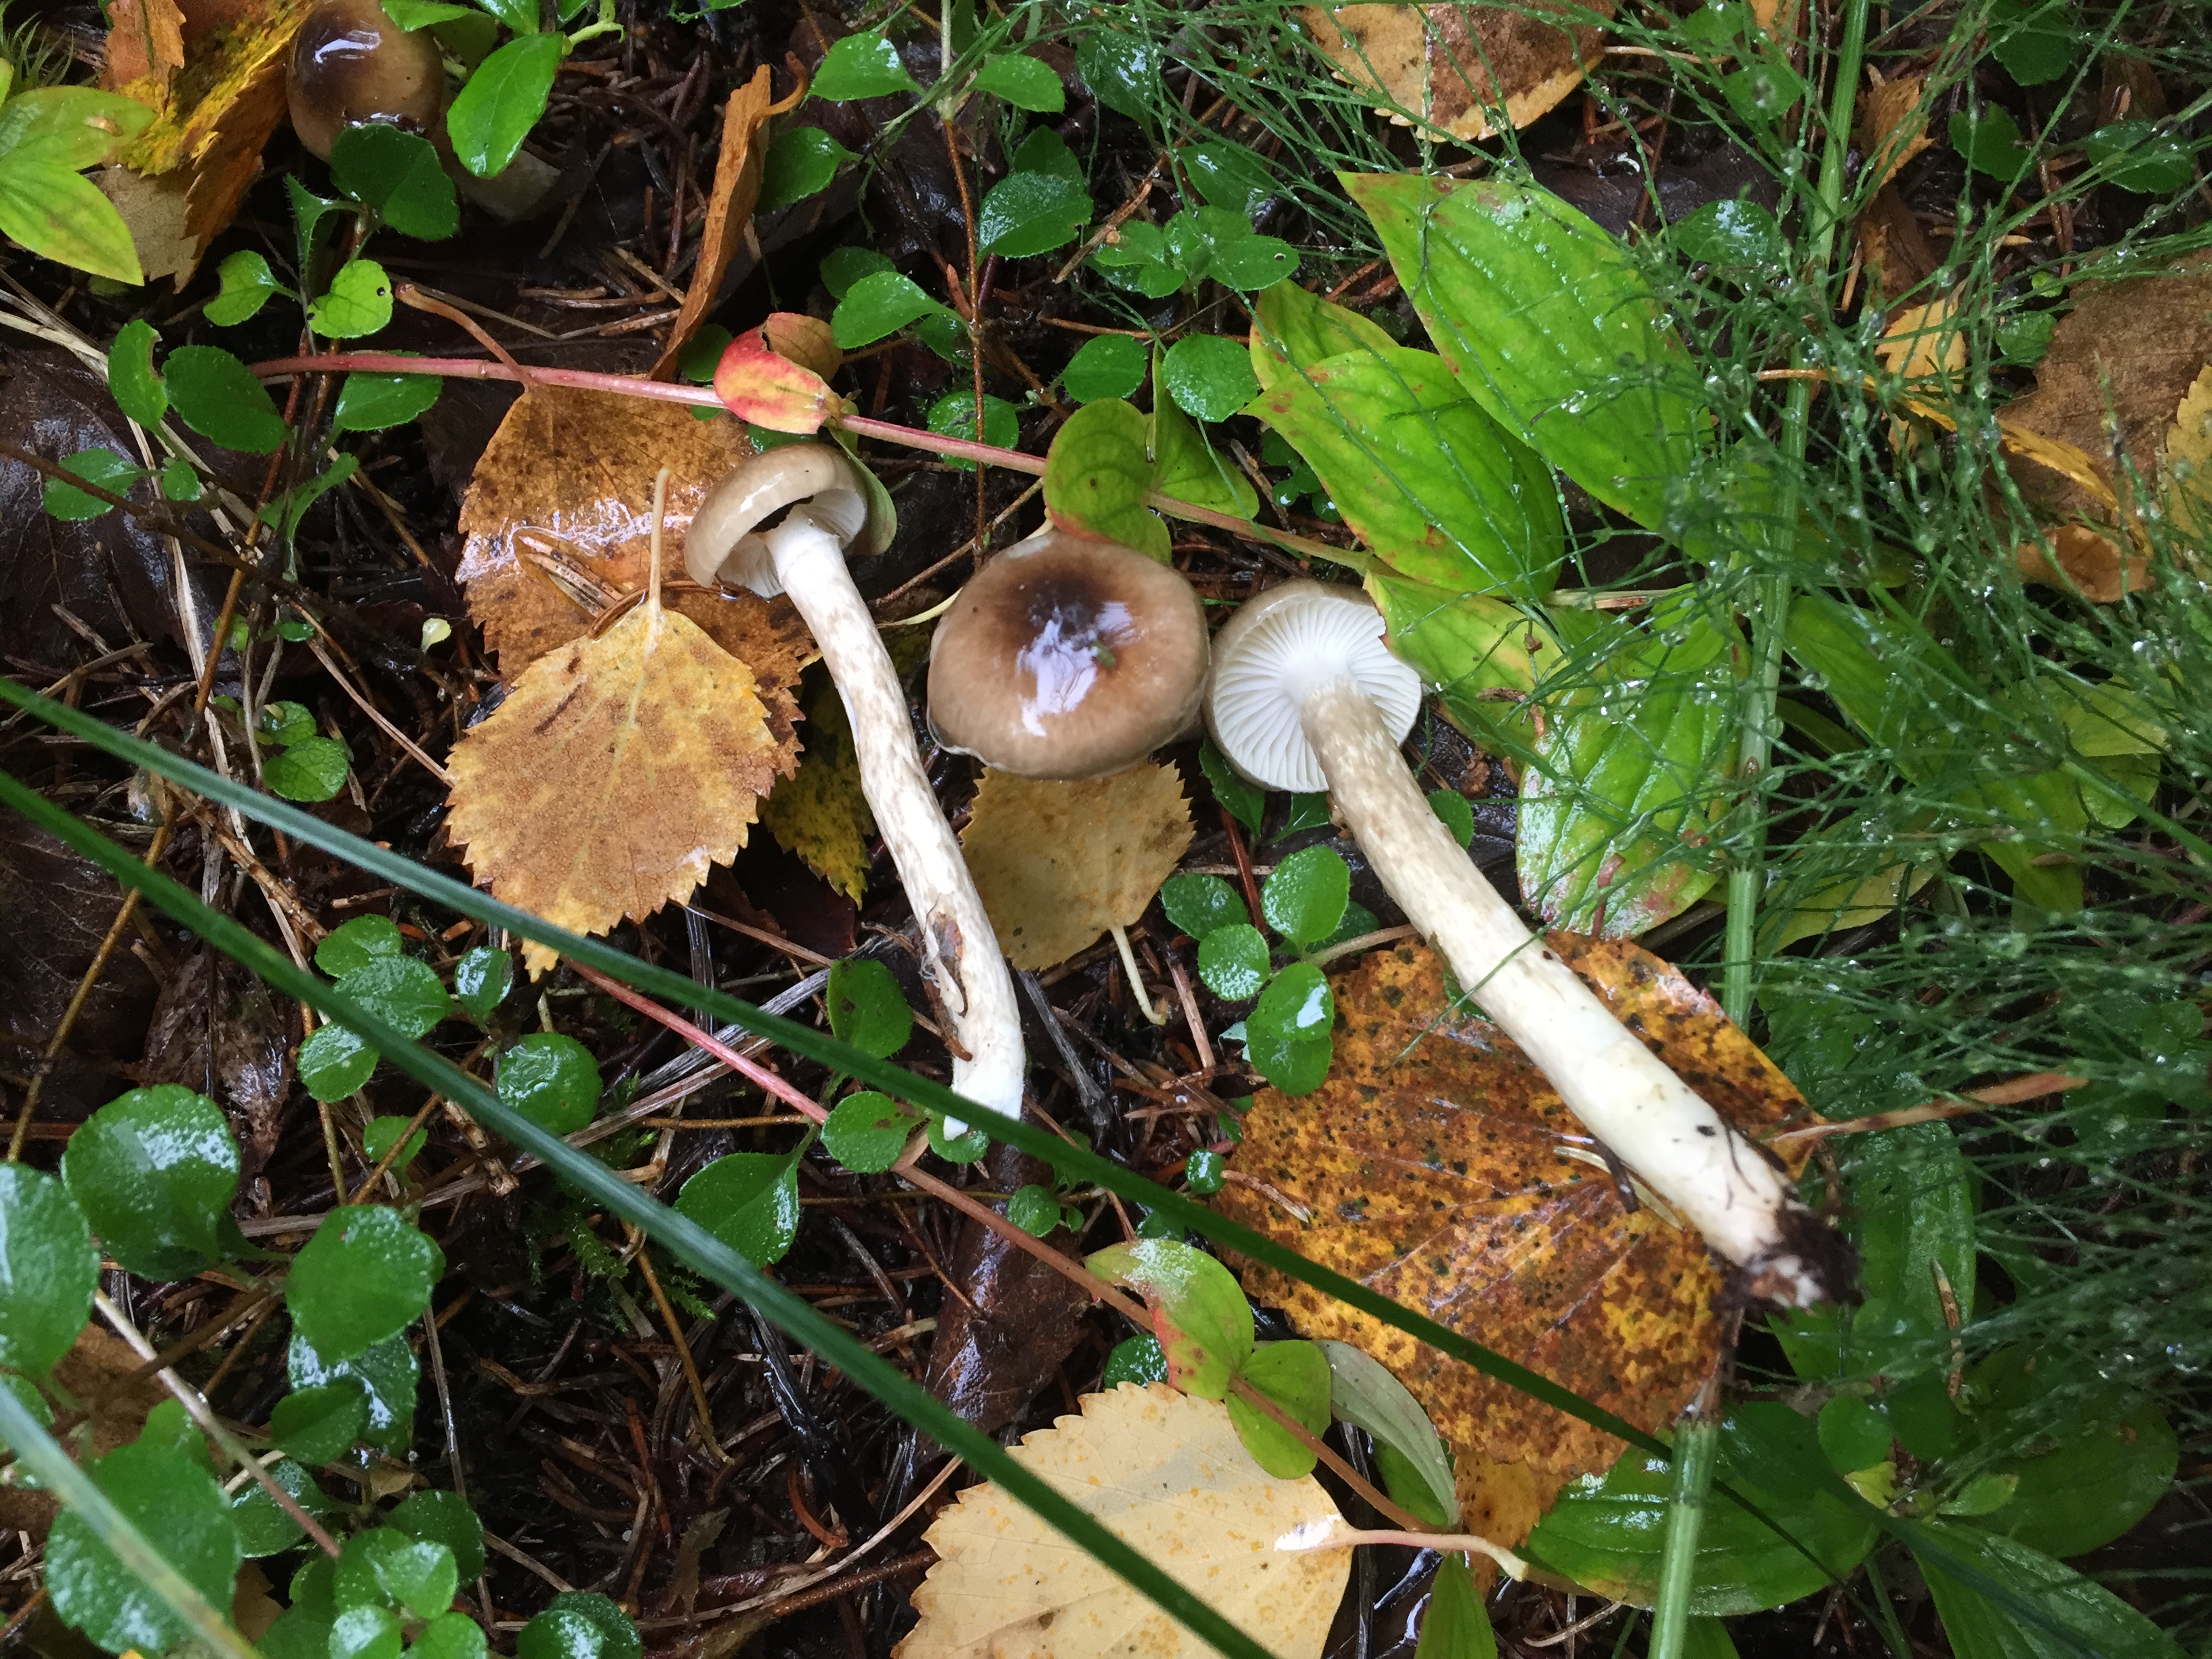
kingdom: Fungi
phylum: Basidiomycota
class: Agaricomycetes
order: Agaricales
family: Hygrophoraceae
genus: Hygrophorus
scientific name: Hygrophorus olivaceoalbus
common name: Olive wax cap
